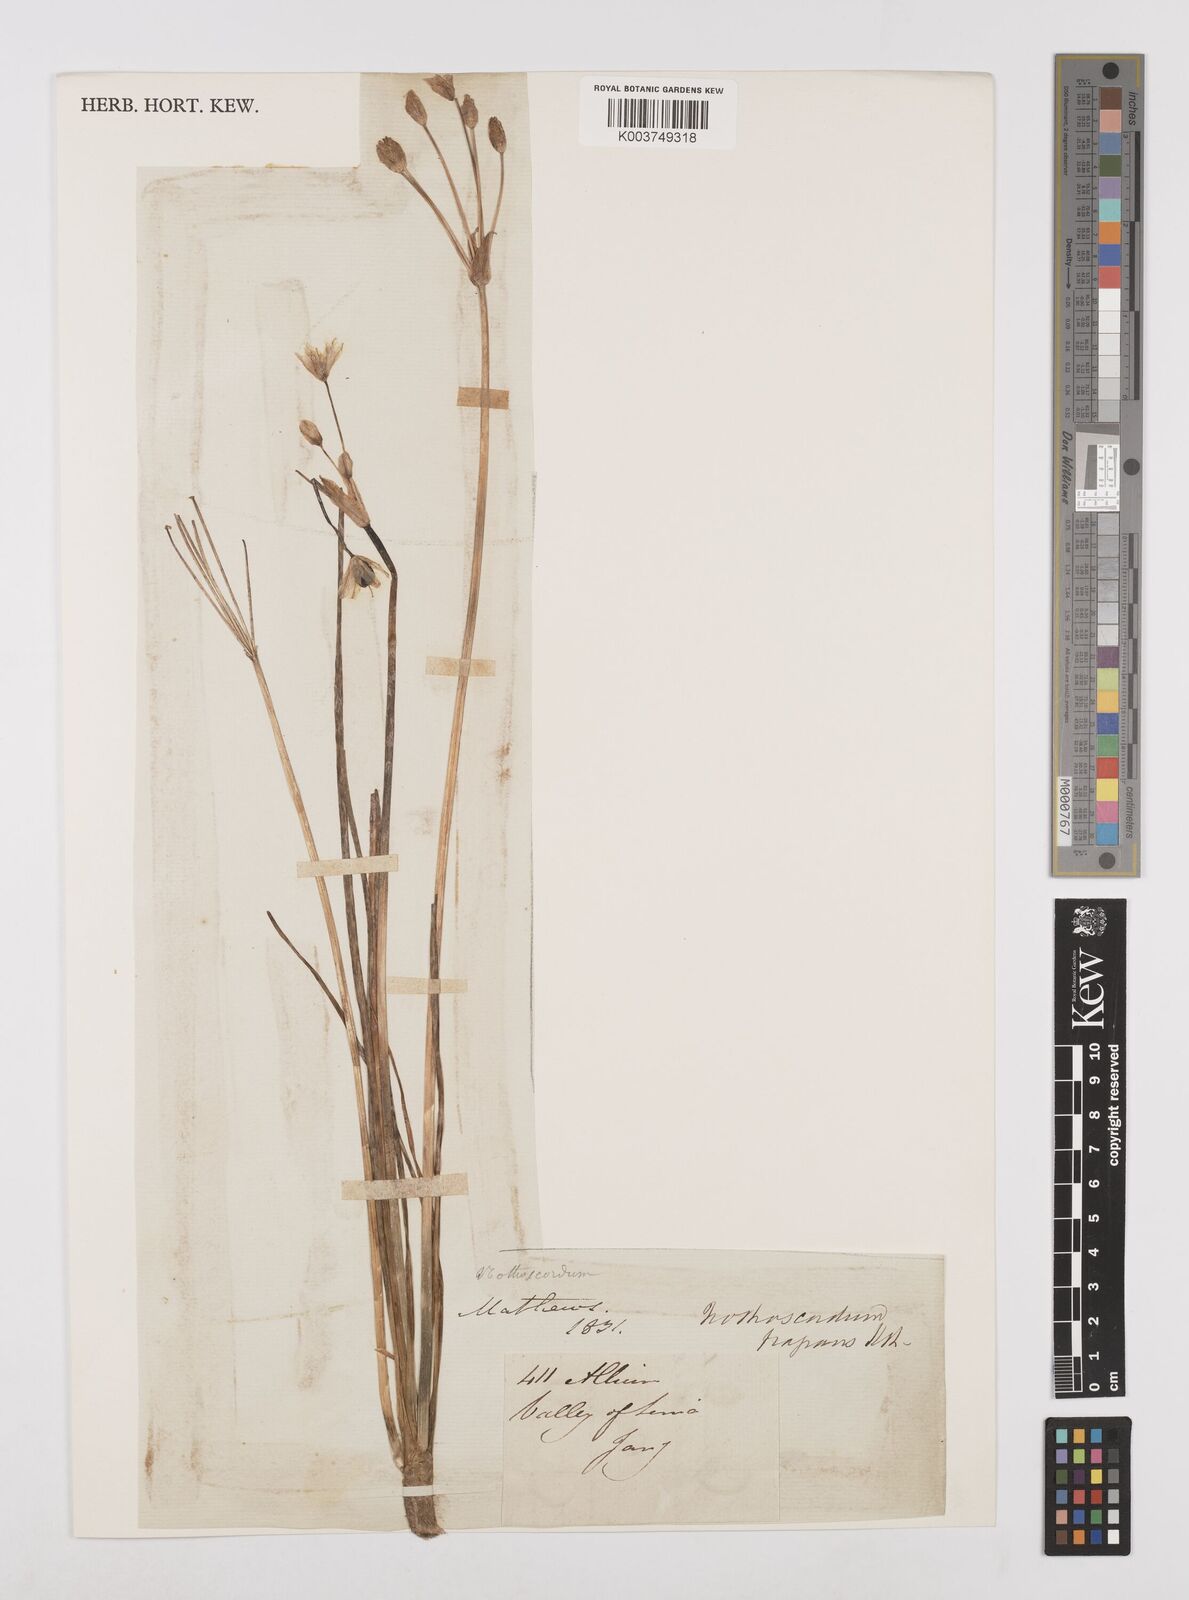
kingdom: Plantae
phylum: Tracheophyta
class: Liliopsida
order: Asparagales
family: Amaryllidaceae
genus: Allium
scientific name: Allium neapolitanum
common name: Neapolitan garlic
